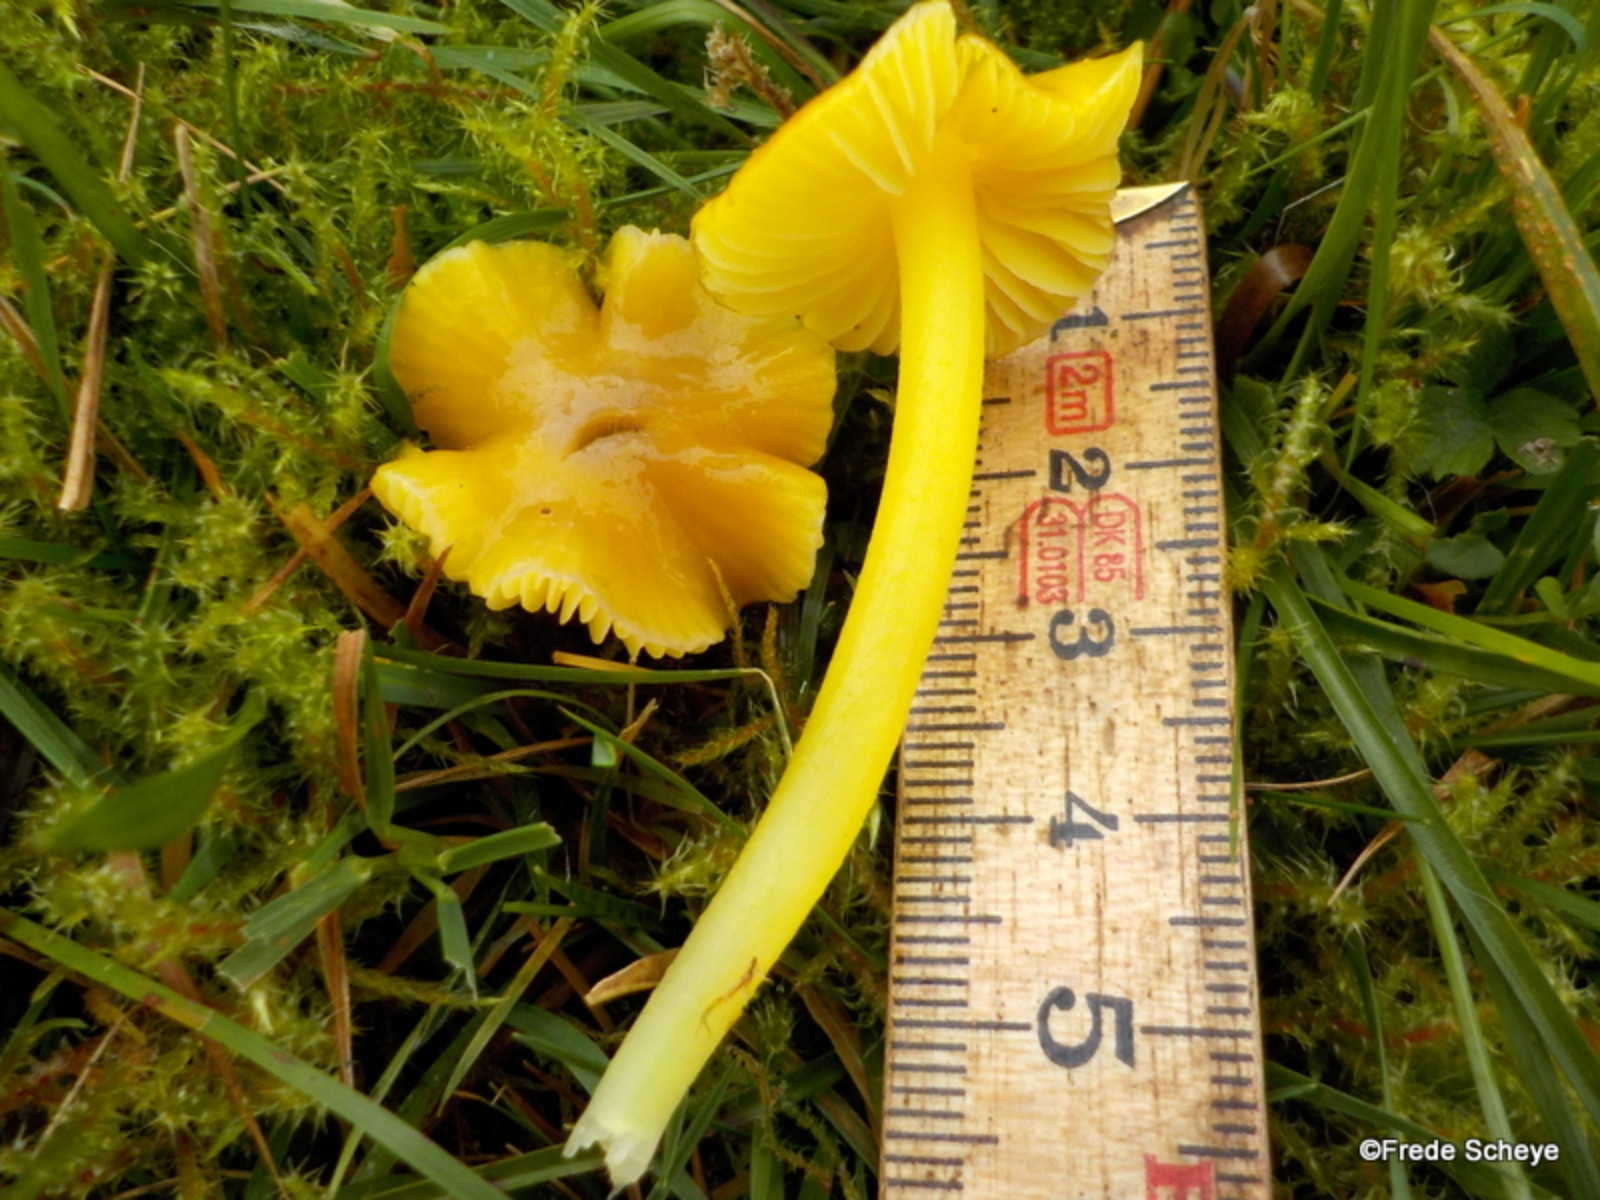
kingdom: Fungi
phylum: Basidiomycota
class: Agaricomycetes
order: Agaricales
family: Hygrophoraceae
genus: Hygrocybe
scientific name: Hygrocybe chlorophana
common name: gul vokshat
